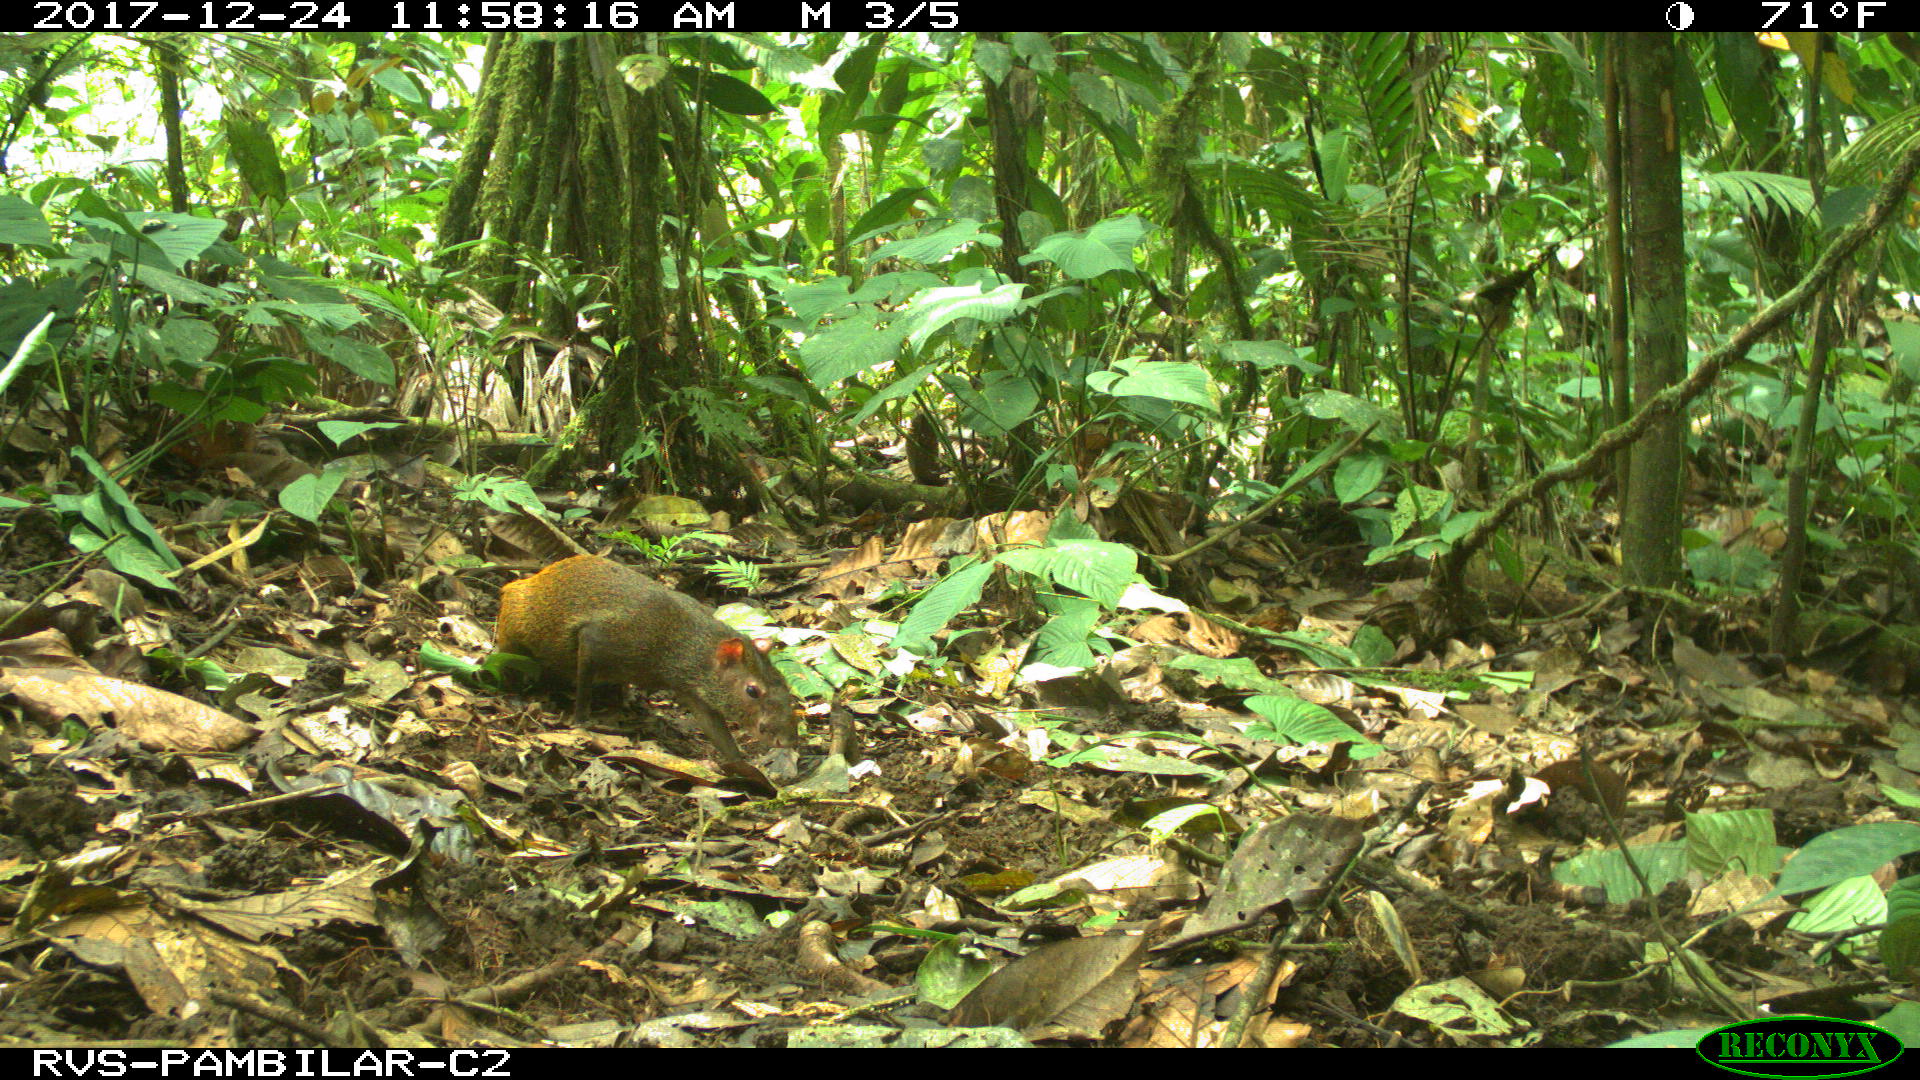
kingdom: Animalia
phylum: Chordata
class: Mammalia
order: Rodentia
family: Dasyproctidae
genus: Dasyprocta
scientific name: Dasyprocta punctata
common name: Central american agouti
